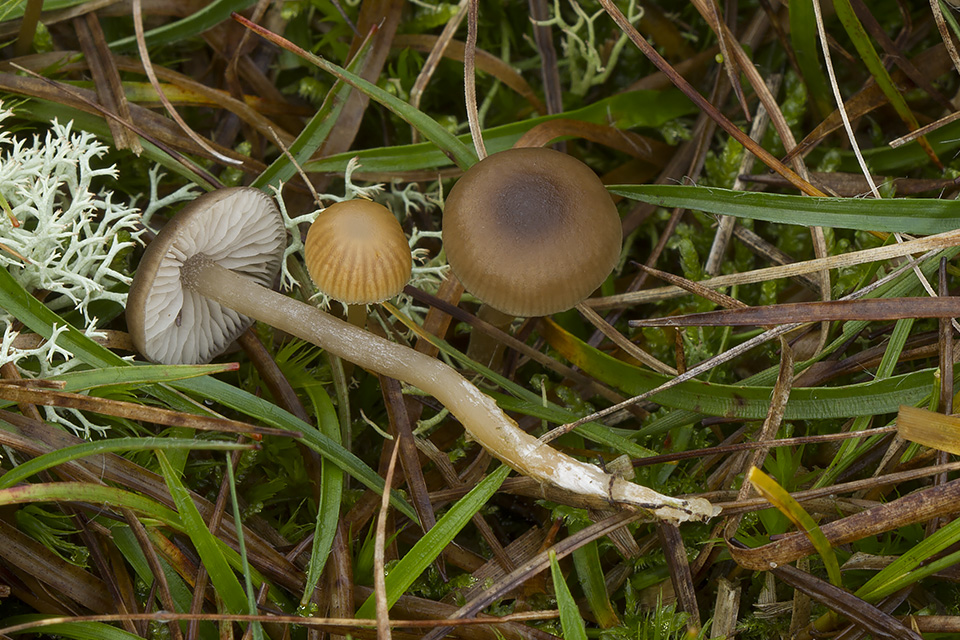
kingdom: Fungi
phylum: Basidiomycota
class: Agaricomycetes
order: Agaricales
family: Lyophyllaceae
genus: Sagaranella
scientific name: Sagaranella tylicolor
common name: kvælstof-gråblad
